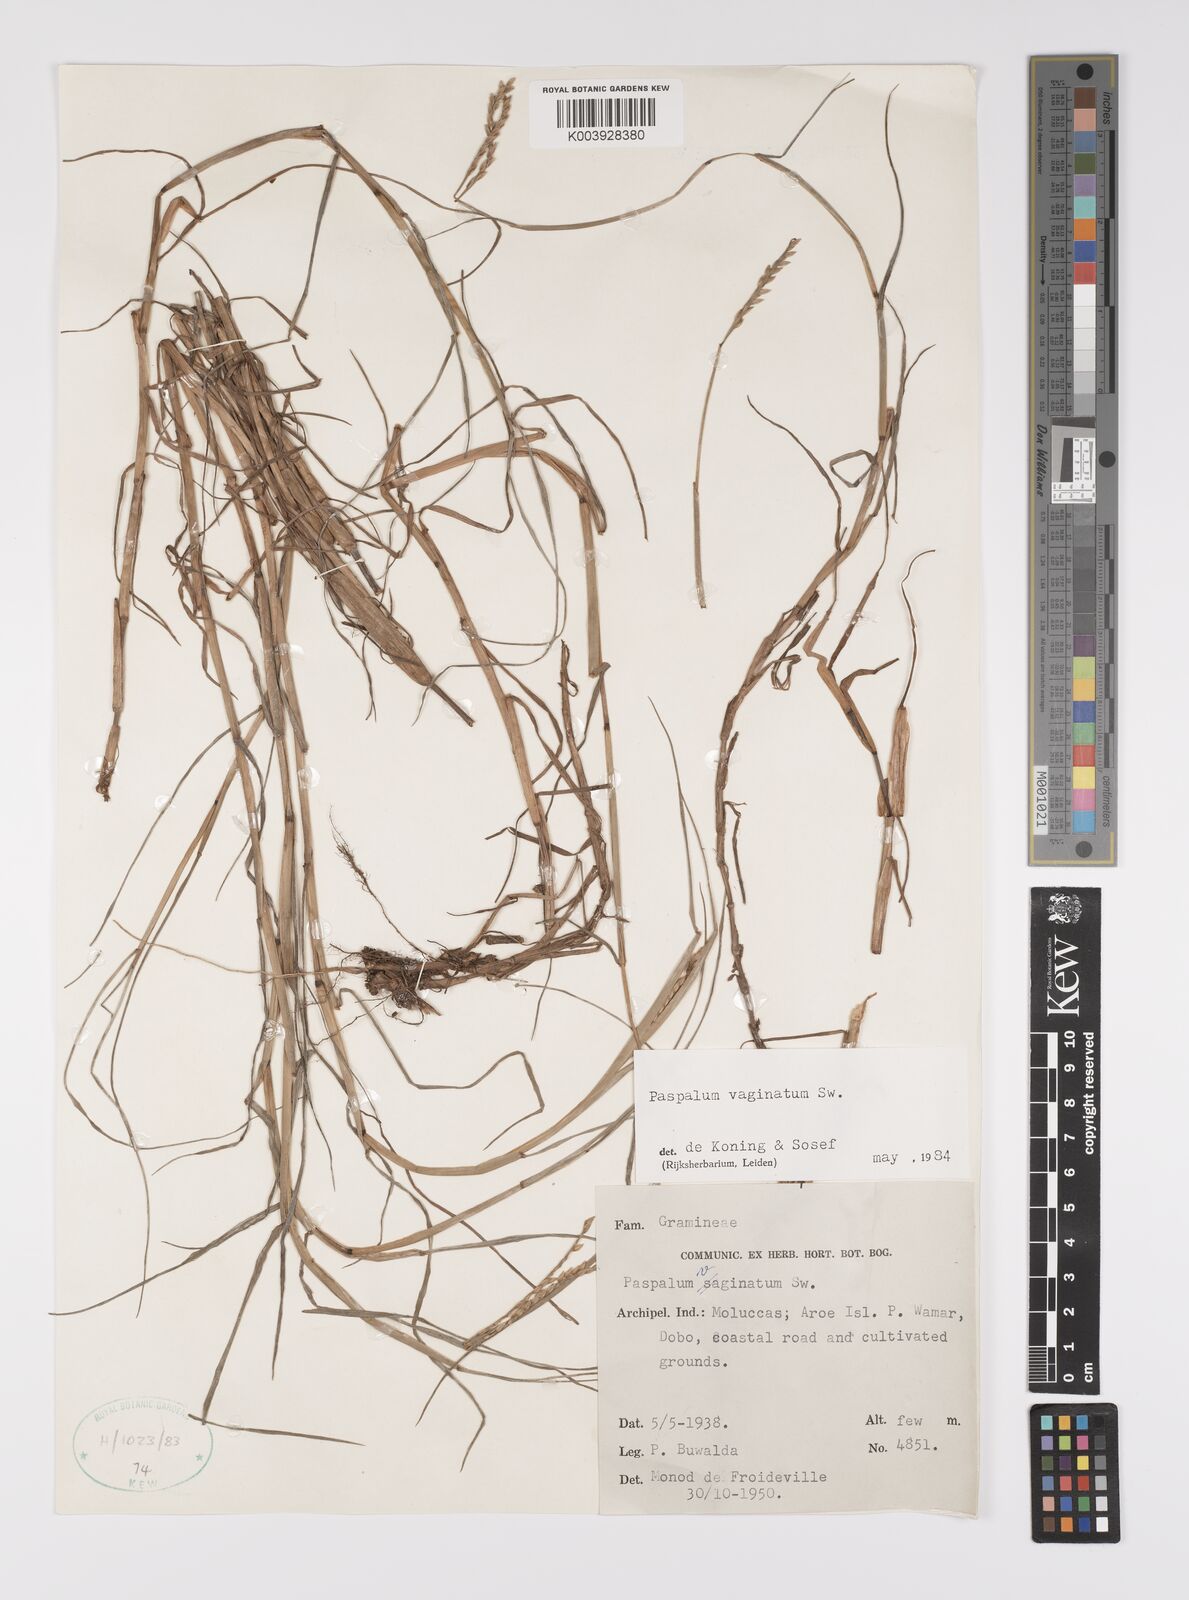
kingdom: Plantae
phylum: Tracheophyta
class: Liliopsida
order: Poales
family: Poaceae
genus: Paspalum
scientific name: Paspalum vaginatum
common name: Seashore paspalum
